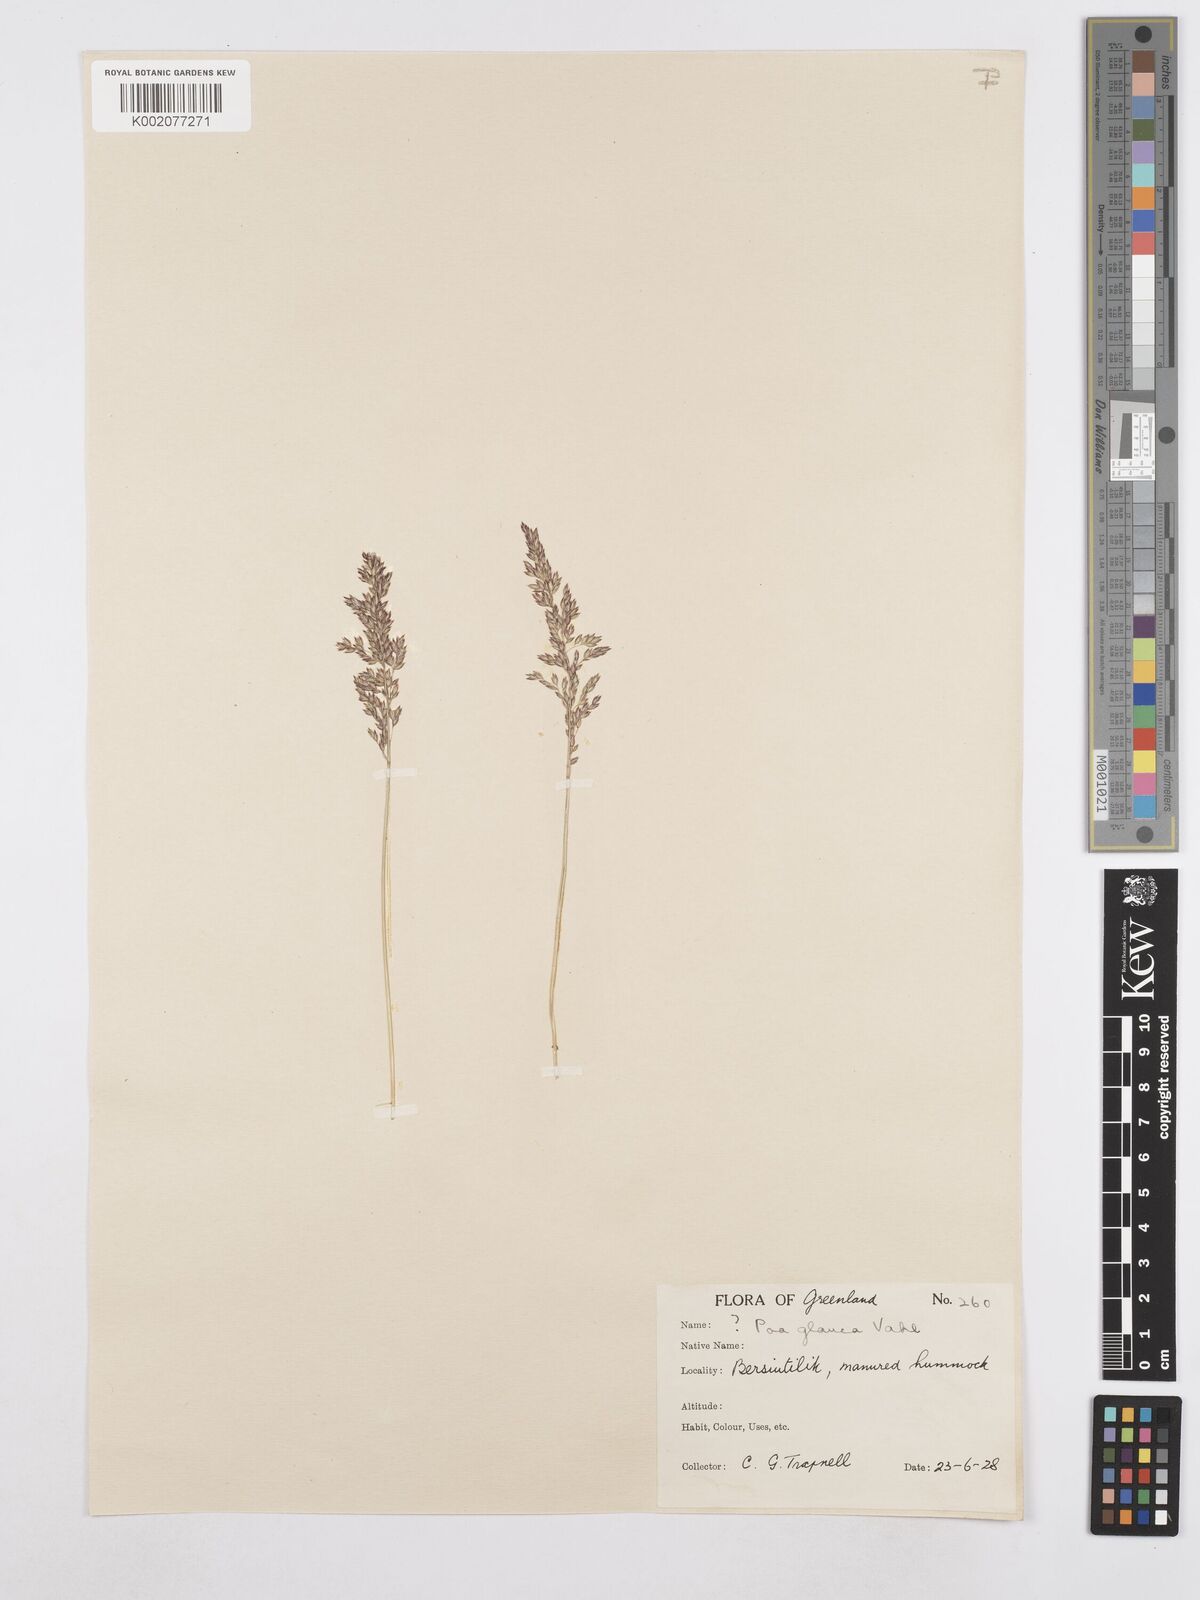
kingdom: Plantae
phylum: Tracheophyta
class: Liliopsida
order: Poales
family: Poaceae
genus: Poa
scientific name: Poa glauca
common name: Glaucous bluegrass
